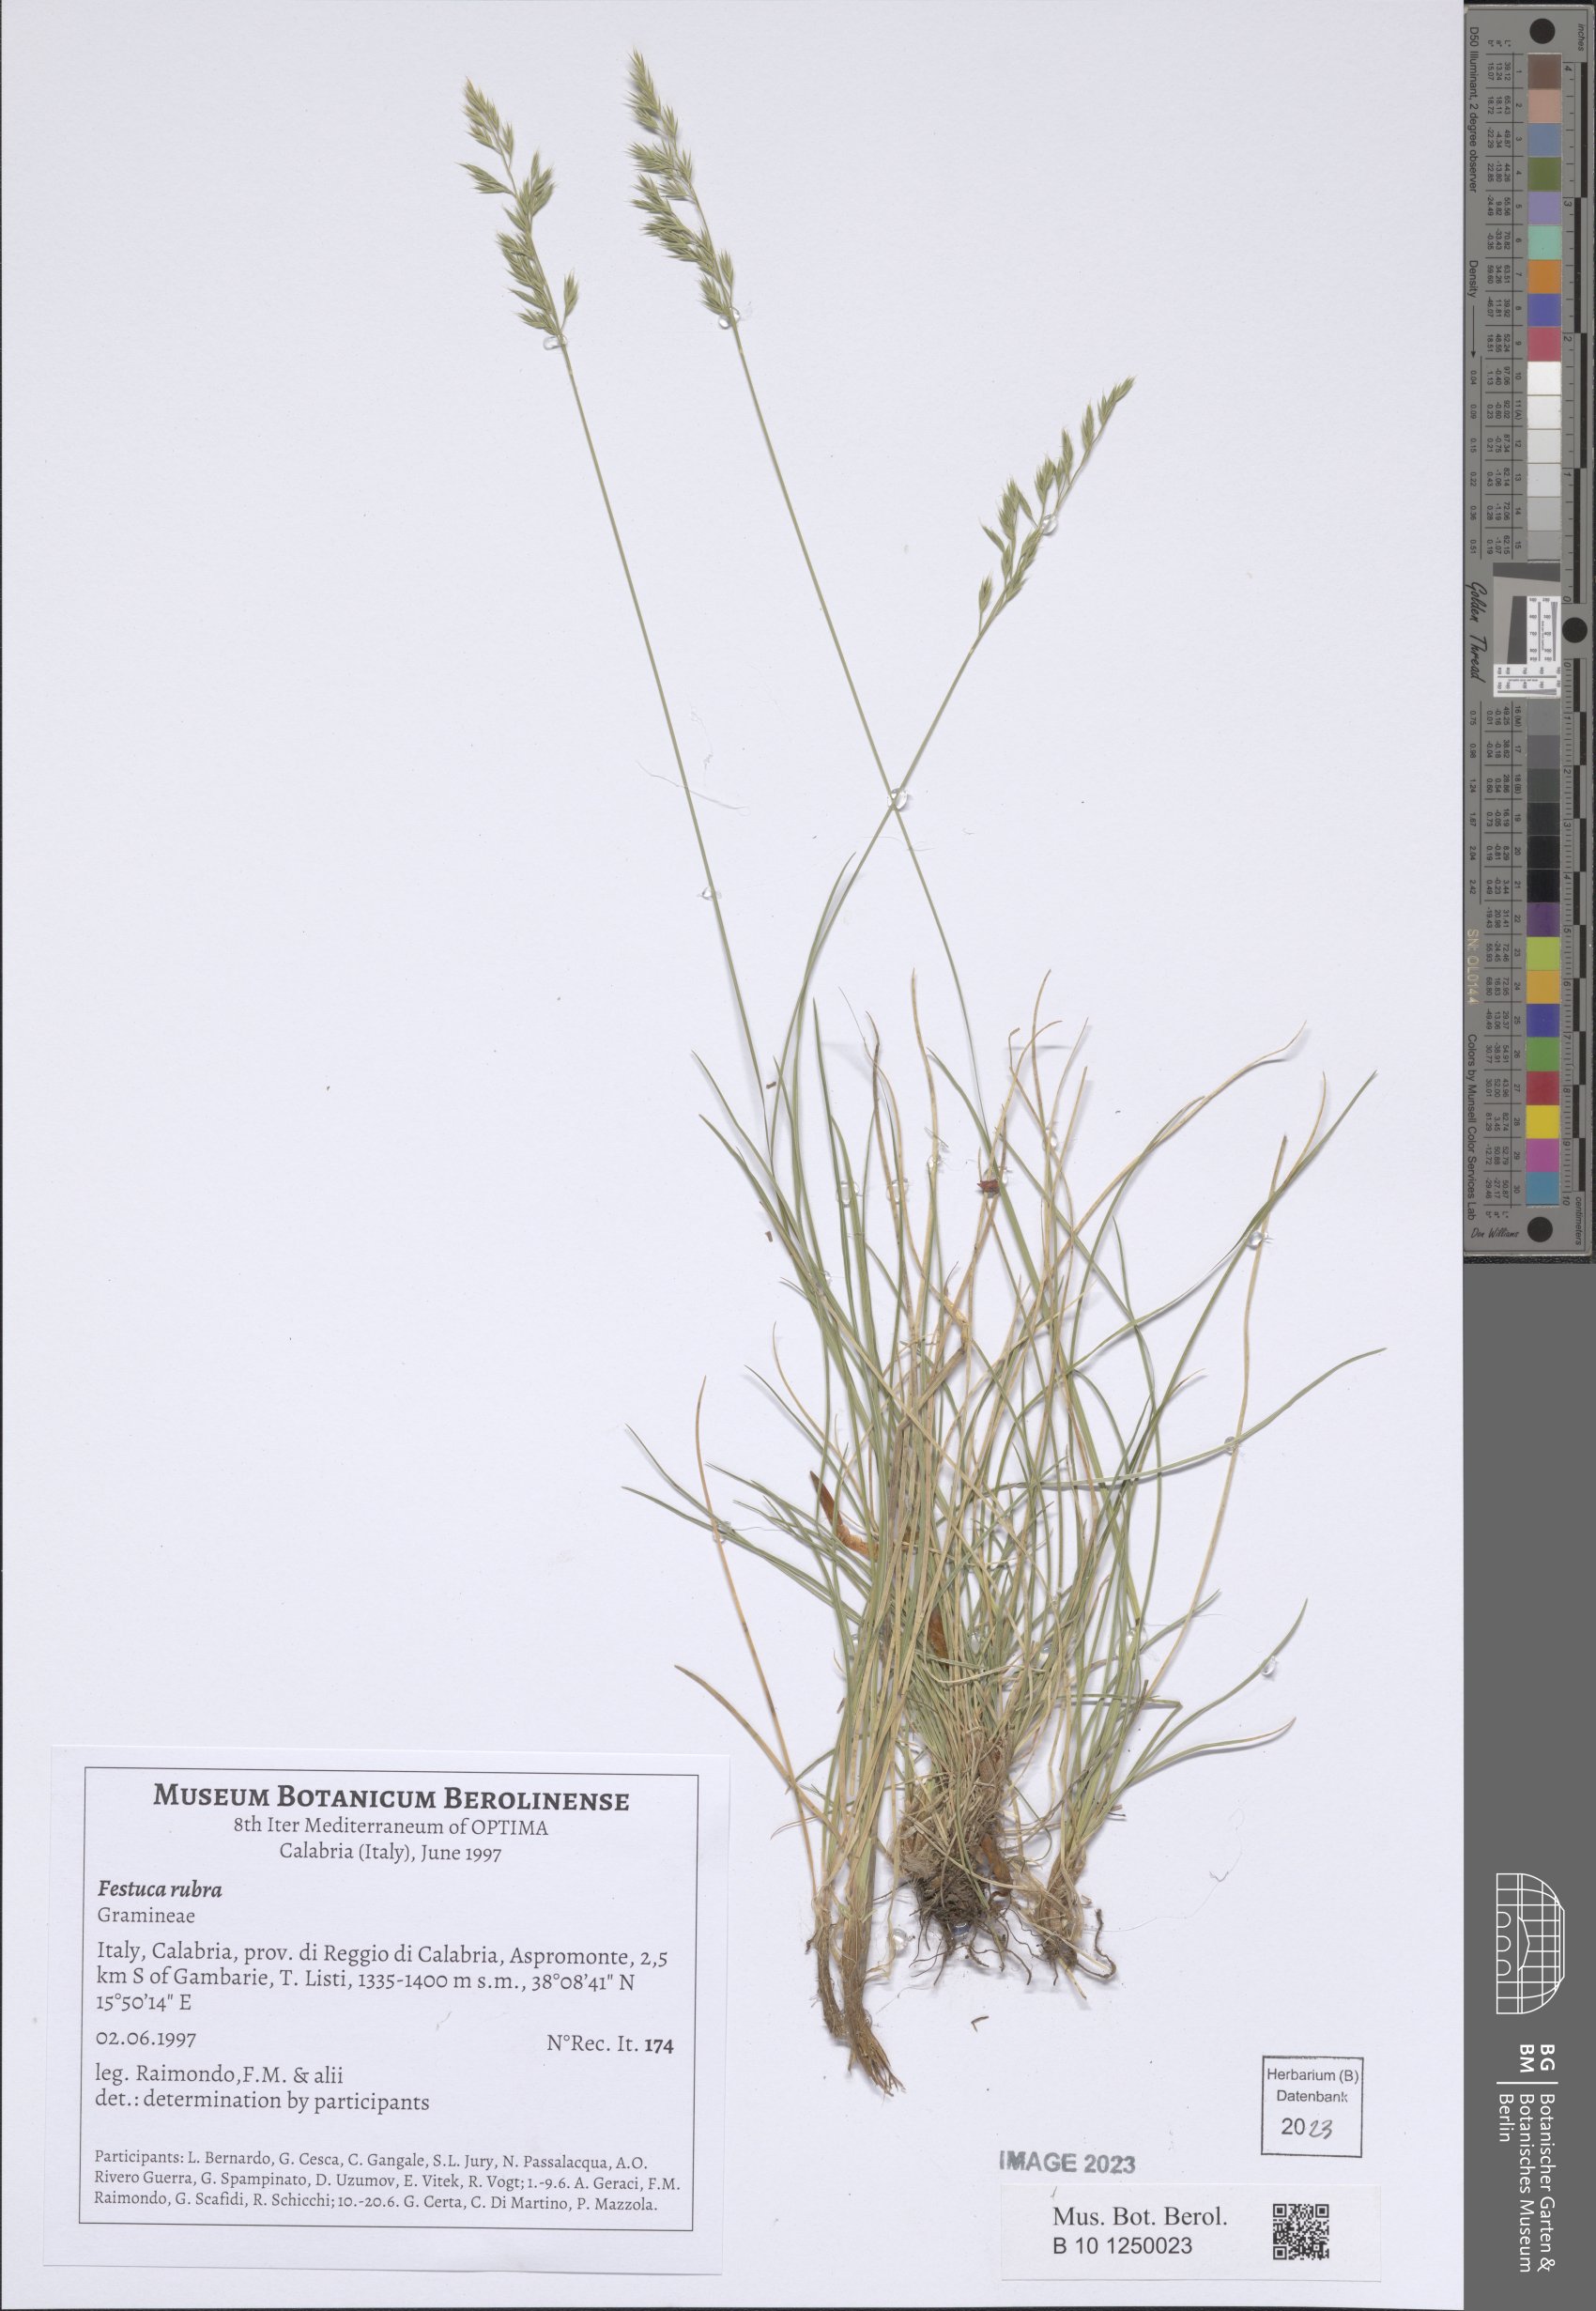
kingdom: Plantae
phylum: Tracheophyta
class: Liliopsida
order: Poales
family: Poaceae
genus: Festuca
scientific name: Festuca rubra
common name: Red fescue
